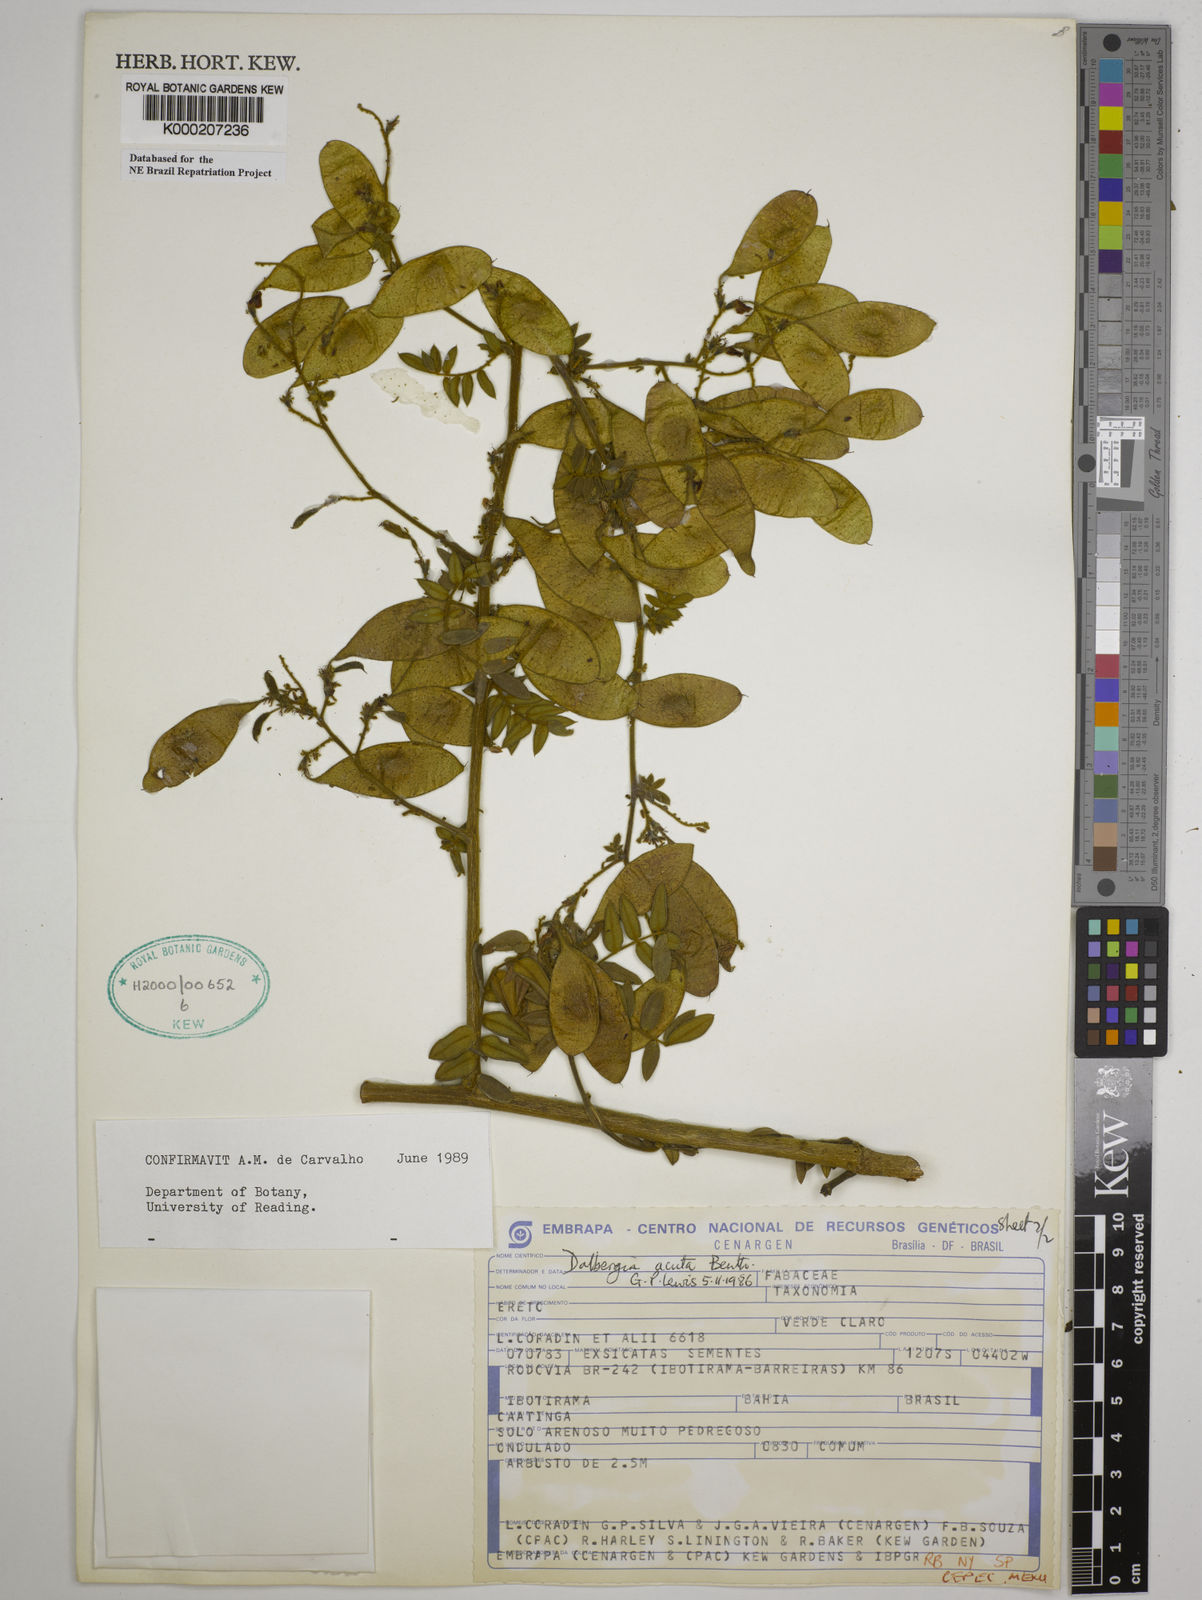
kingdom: Plantae
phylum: Tracheophyta
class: Magnoliopsida
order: Fabales
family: Fabaceae
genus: Dalbergia
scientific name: Dalbergia acuta
